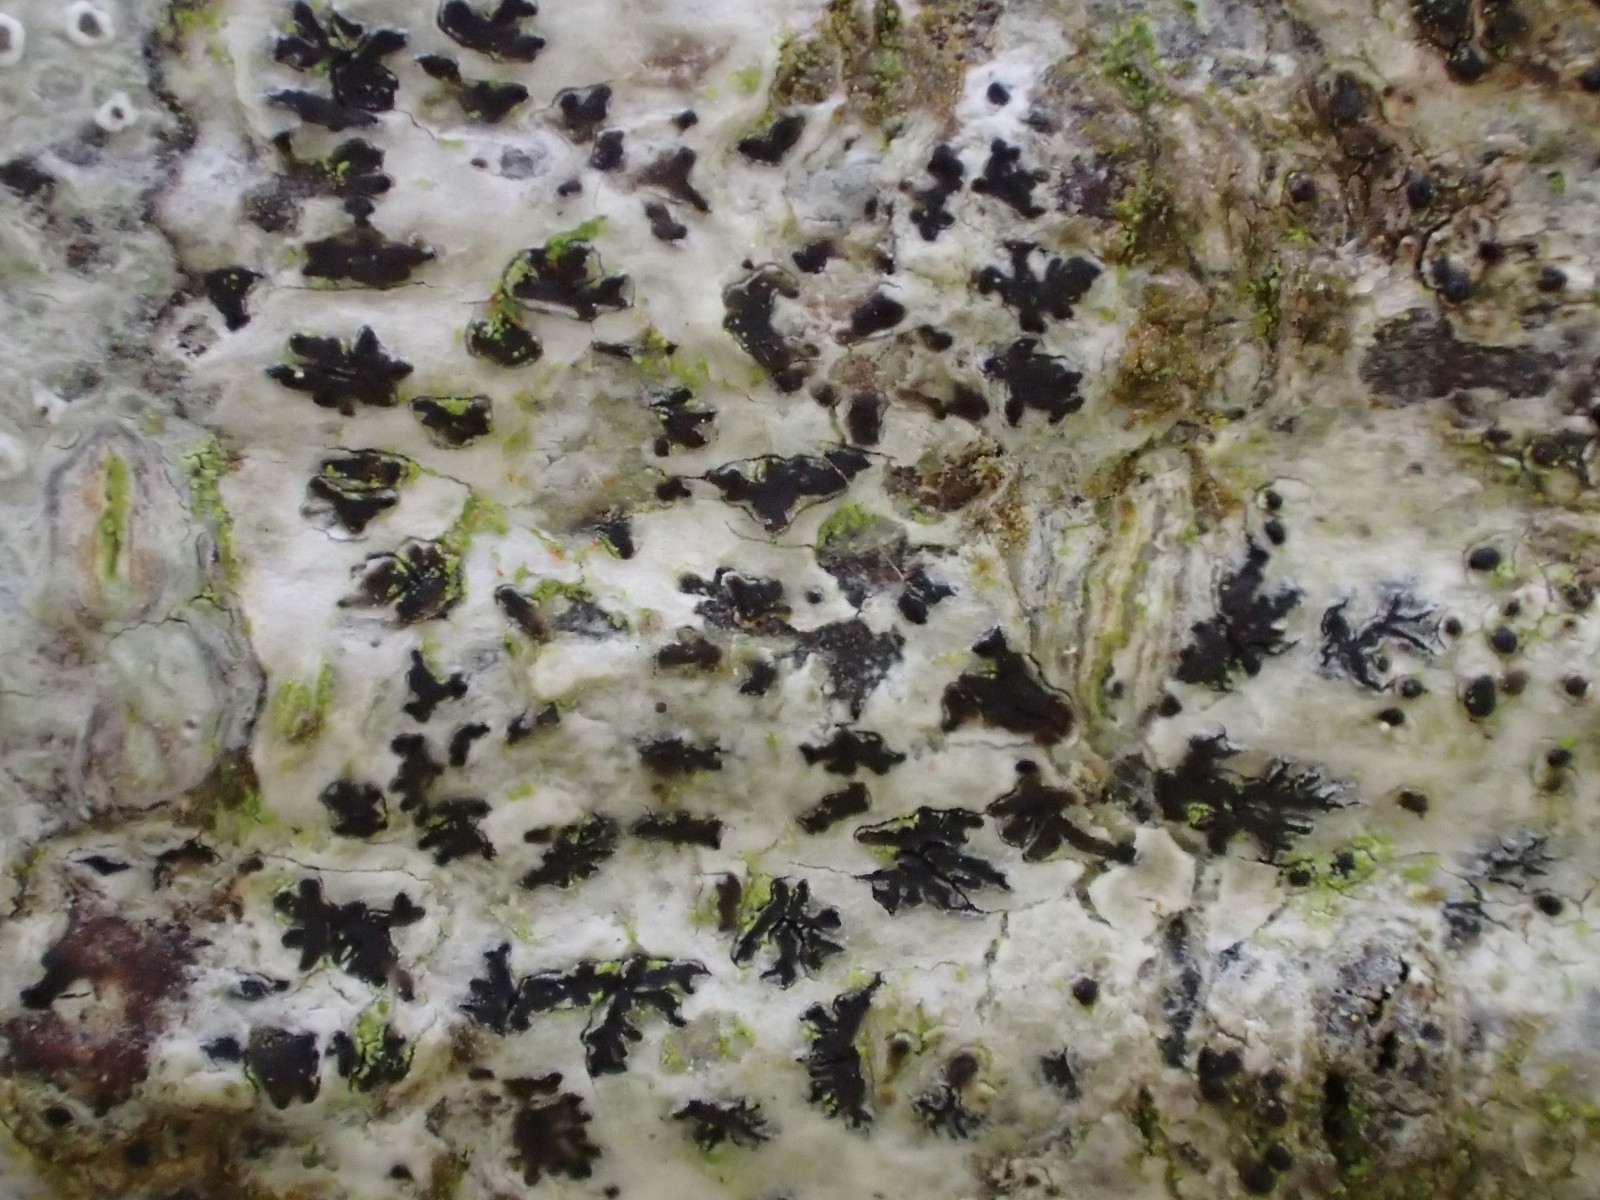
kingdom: Fungi
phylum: Ascomycota
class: Arthoniomycetes
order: Arthoniales
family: Arthoniaceae
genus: Arthonia
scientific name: Arthonia radiata
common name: stjerne-pletlav
